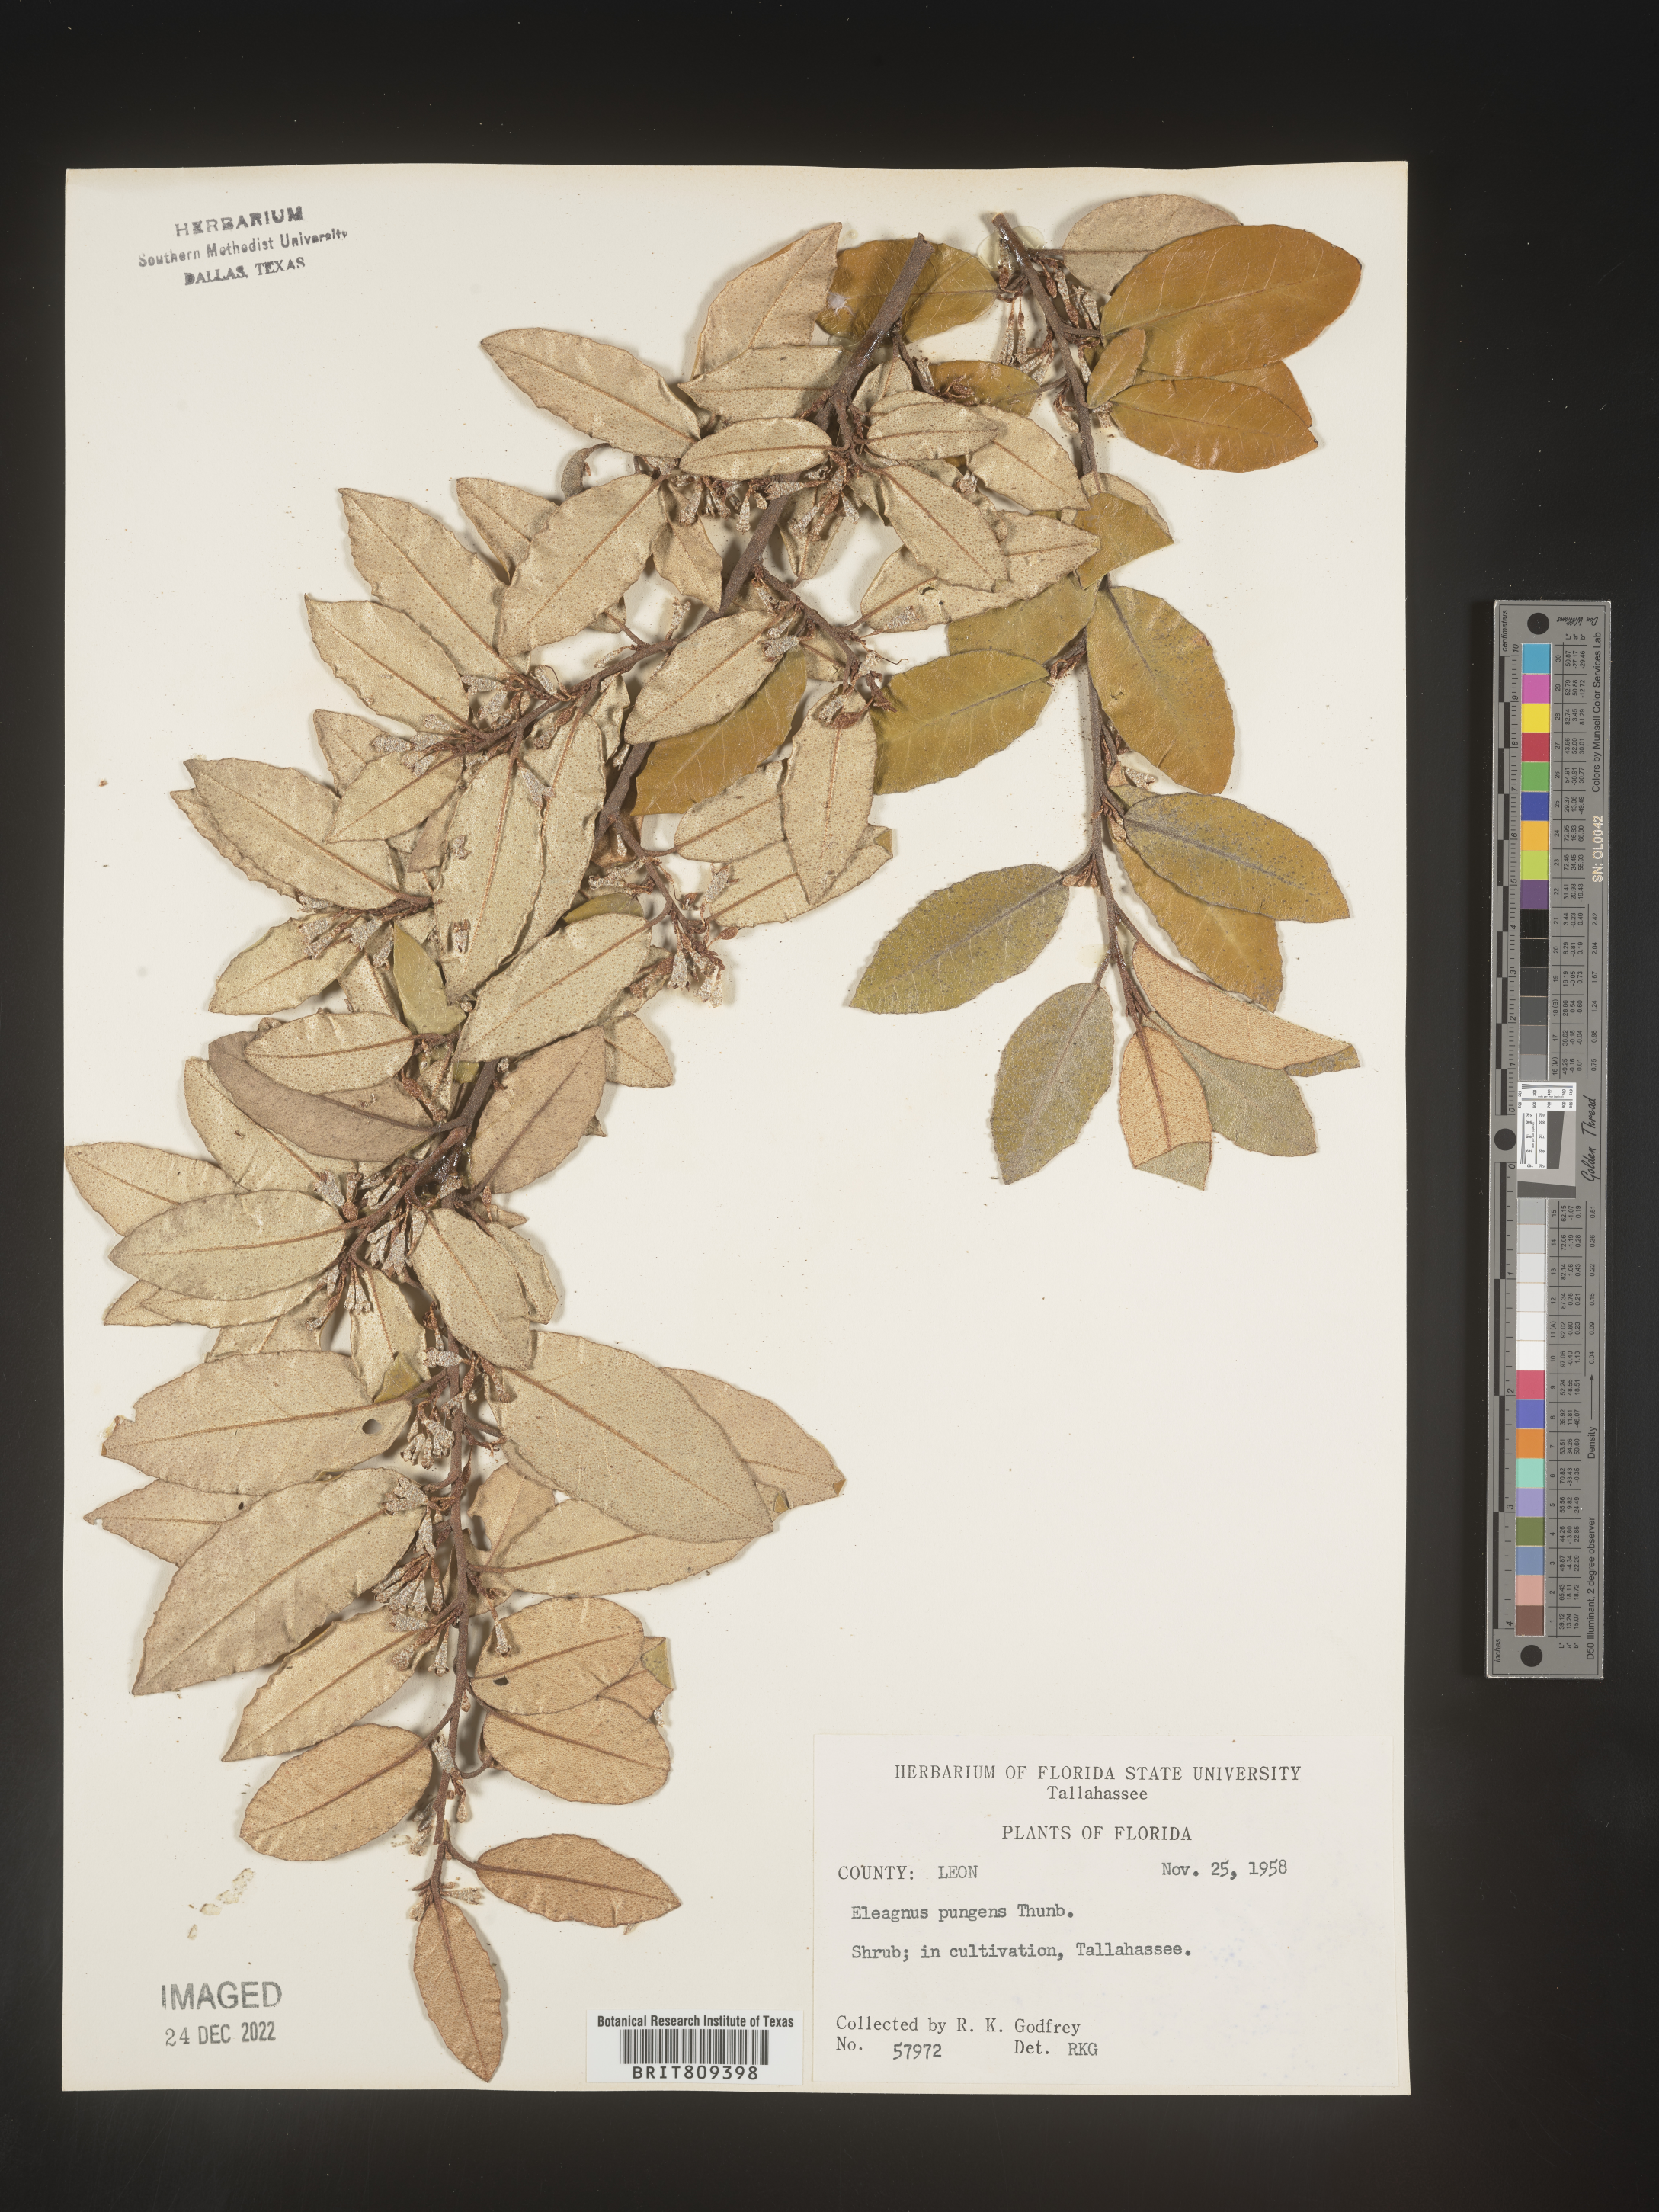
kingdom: Plantae
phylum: Tracheophyta
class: Magnoliopsida
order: Rosales
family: Elaeagnaceae
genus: Elaeagnus
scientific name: Elaeagnus
